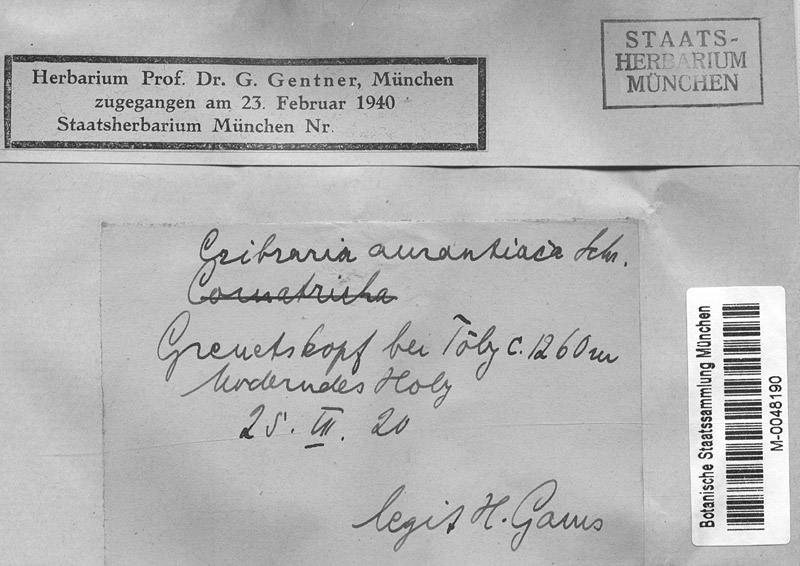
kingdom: Protozoa
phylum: Mycetozoa
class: Myxomycetes
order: Cribrariales
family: Cribrariaceae
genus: Cribraria
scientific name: Cribraria aurantiaca
